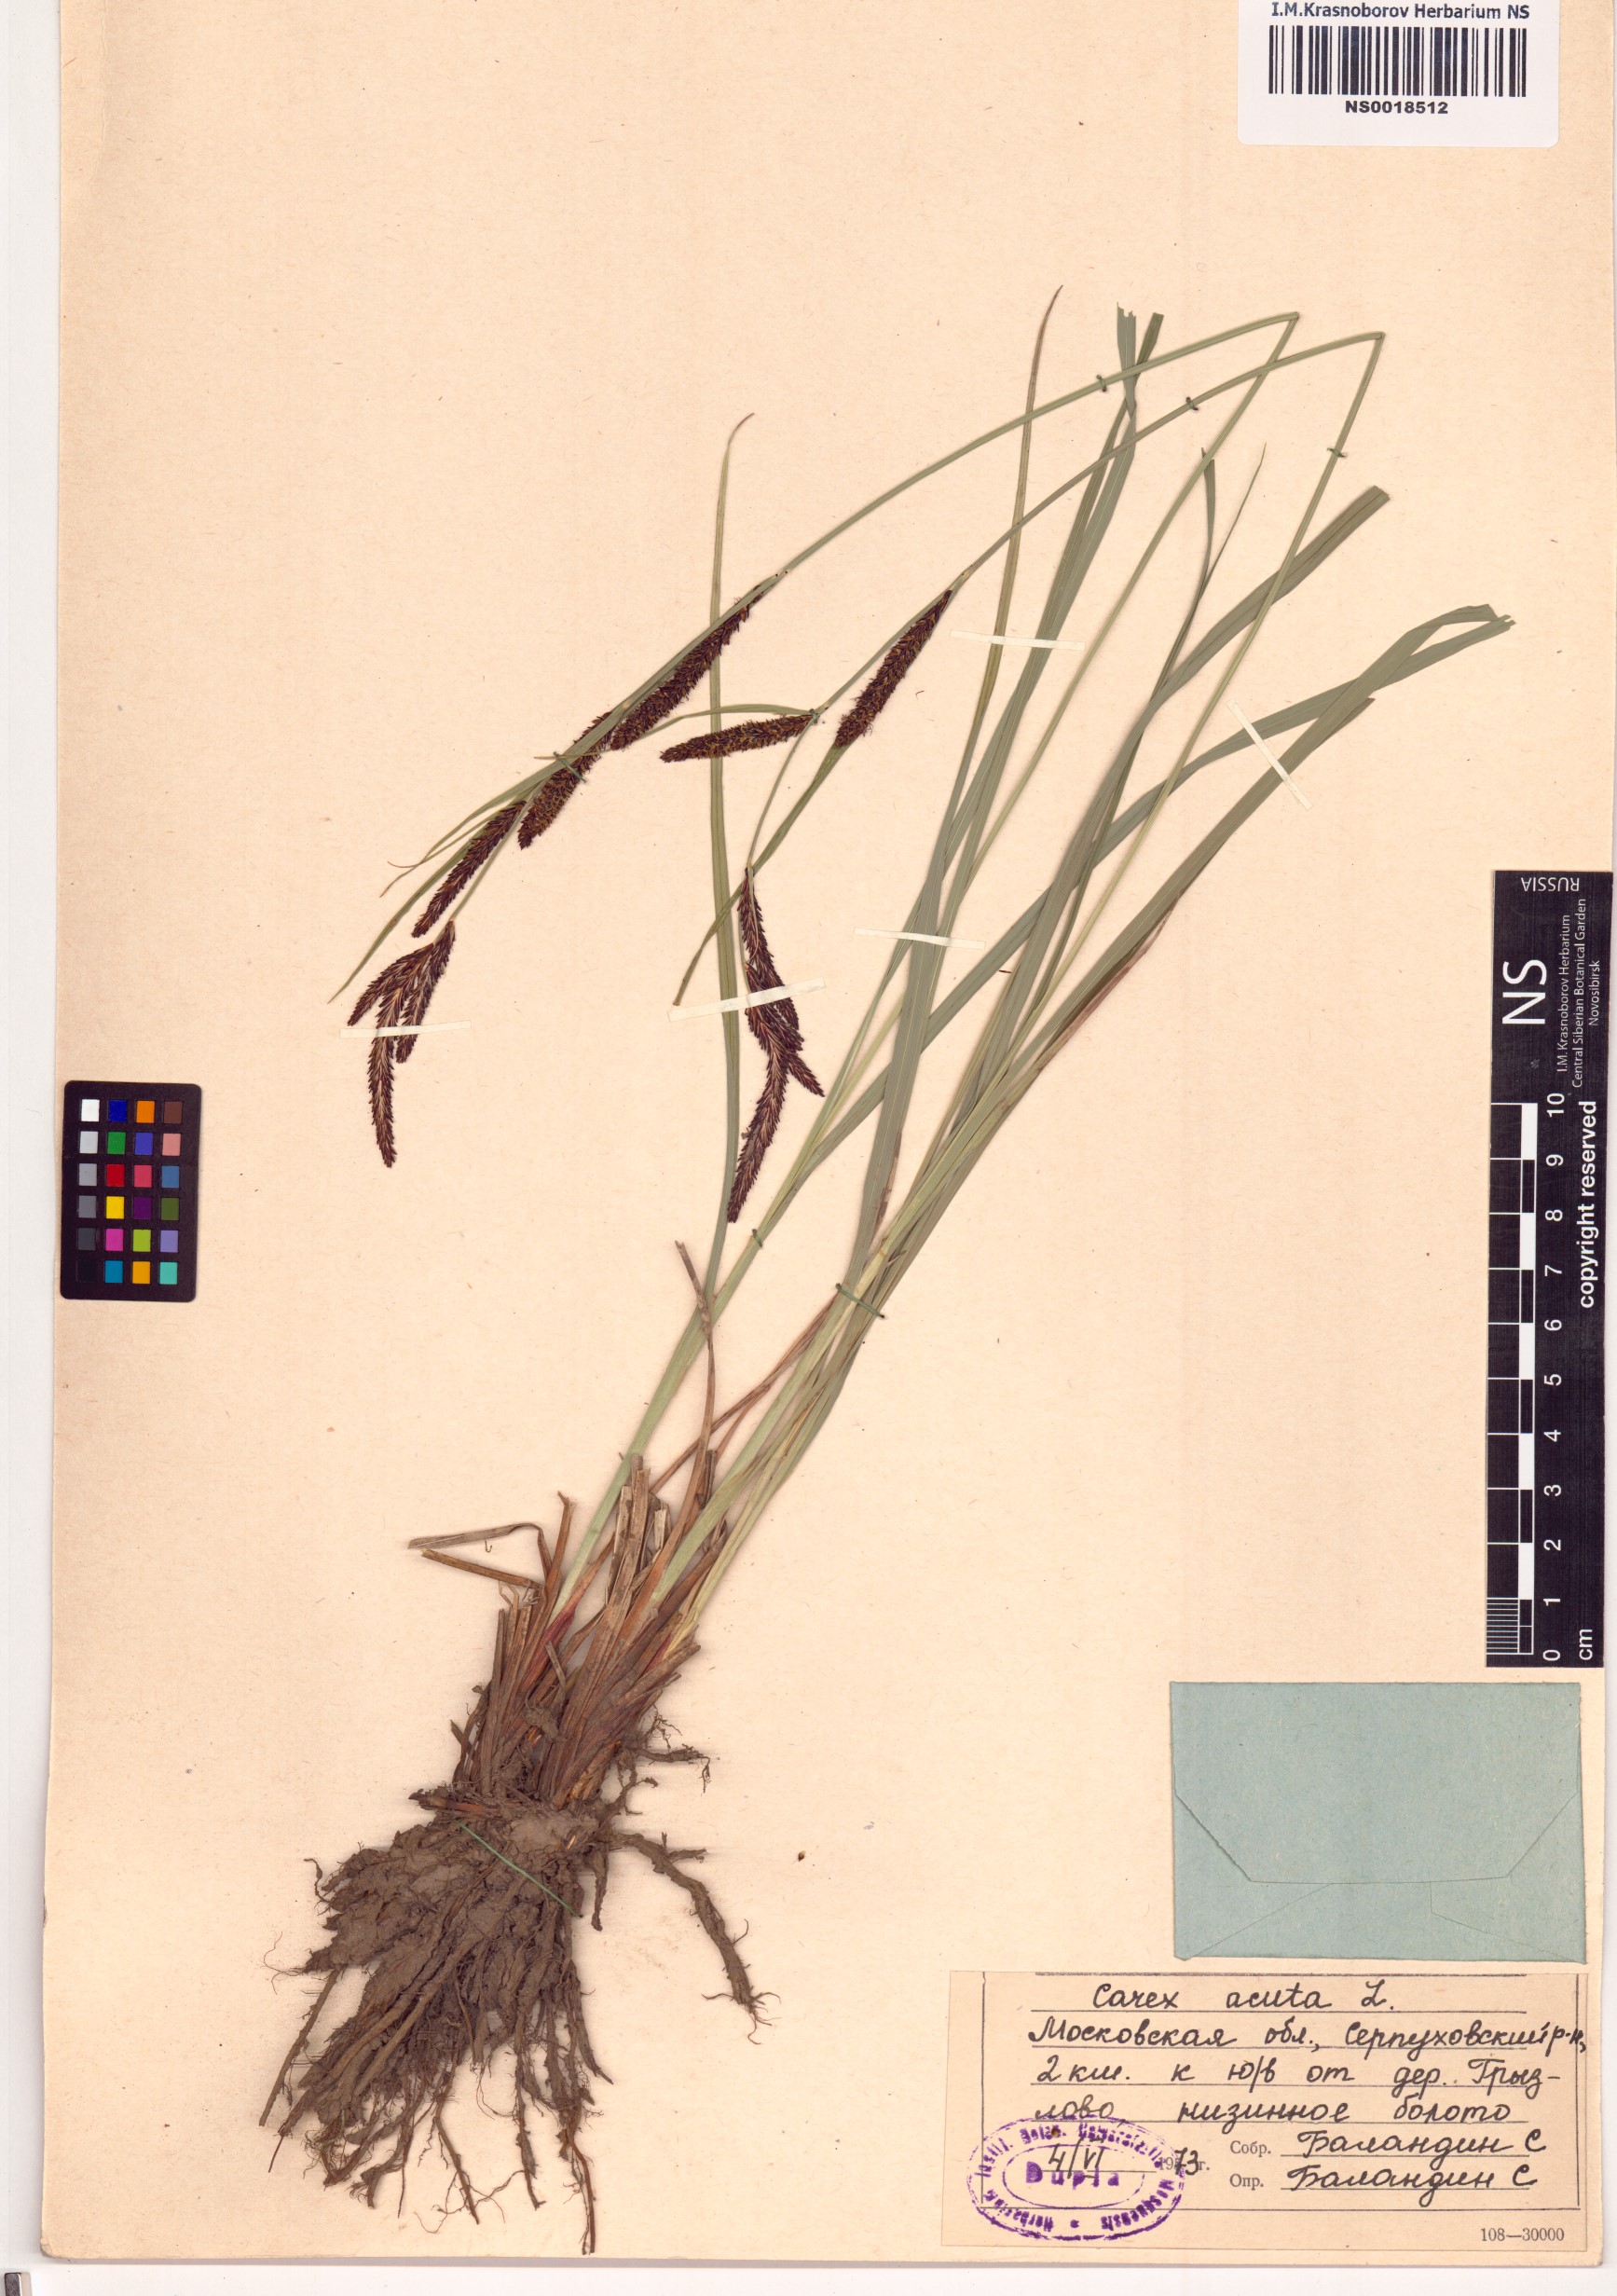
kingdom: Plantae
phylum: Tracheophyta
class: Liliopsida
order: Poales
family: Cyperaceae
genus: Carex
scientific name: Carex acuta
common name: Slender tufted-sedge
